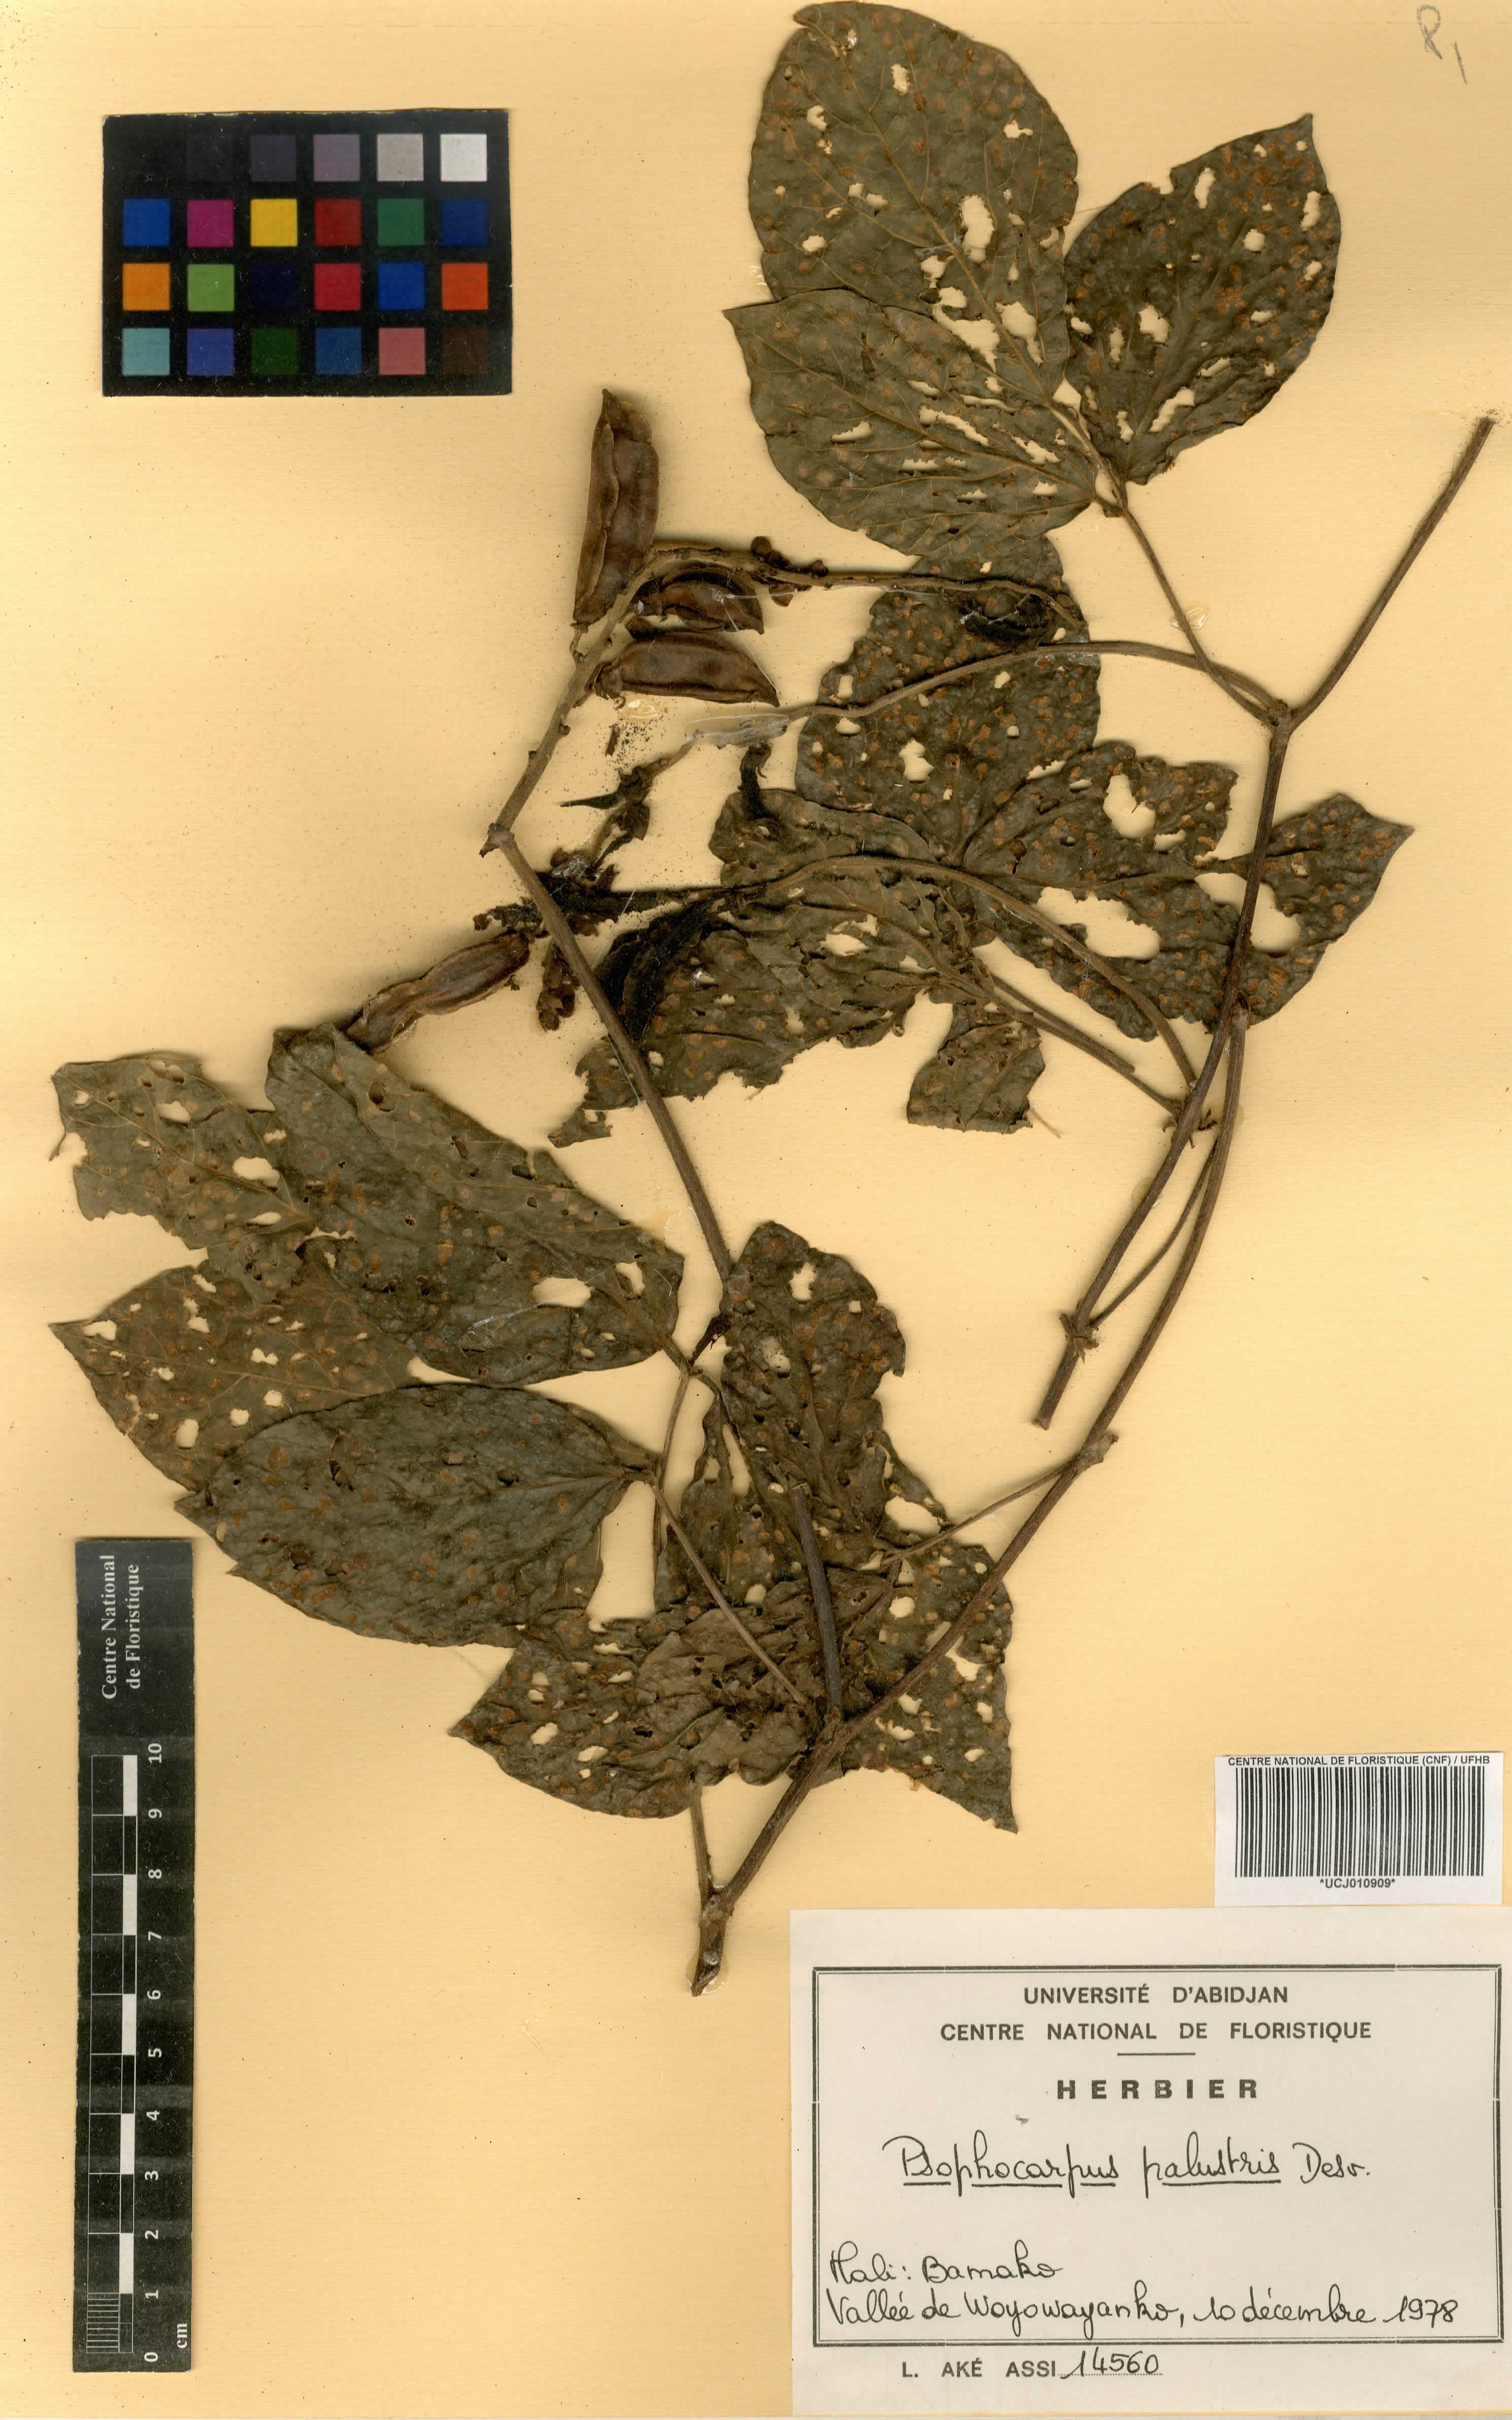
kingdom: Plantae
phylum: Tracheophyta
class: Magnoliopsida
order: Fabales
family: Fabaceae
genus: Psophocarpus
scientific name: Psophocarpus palustris
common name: African winged-bean
